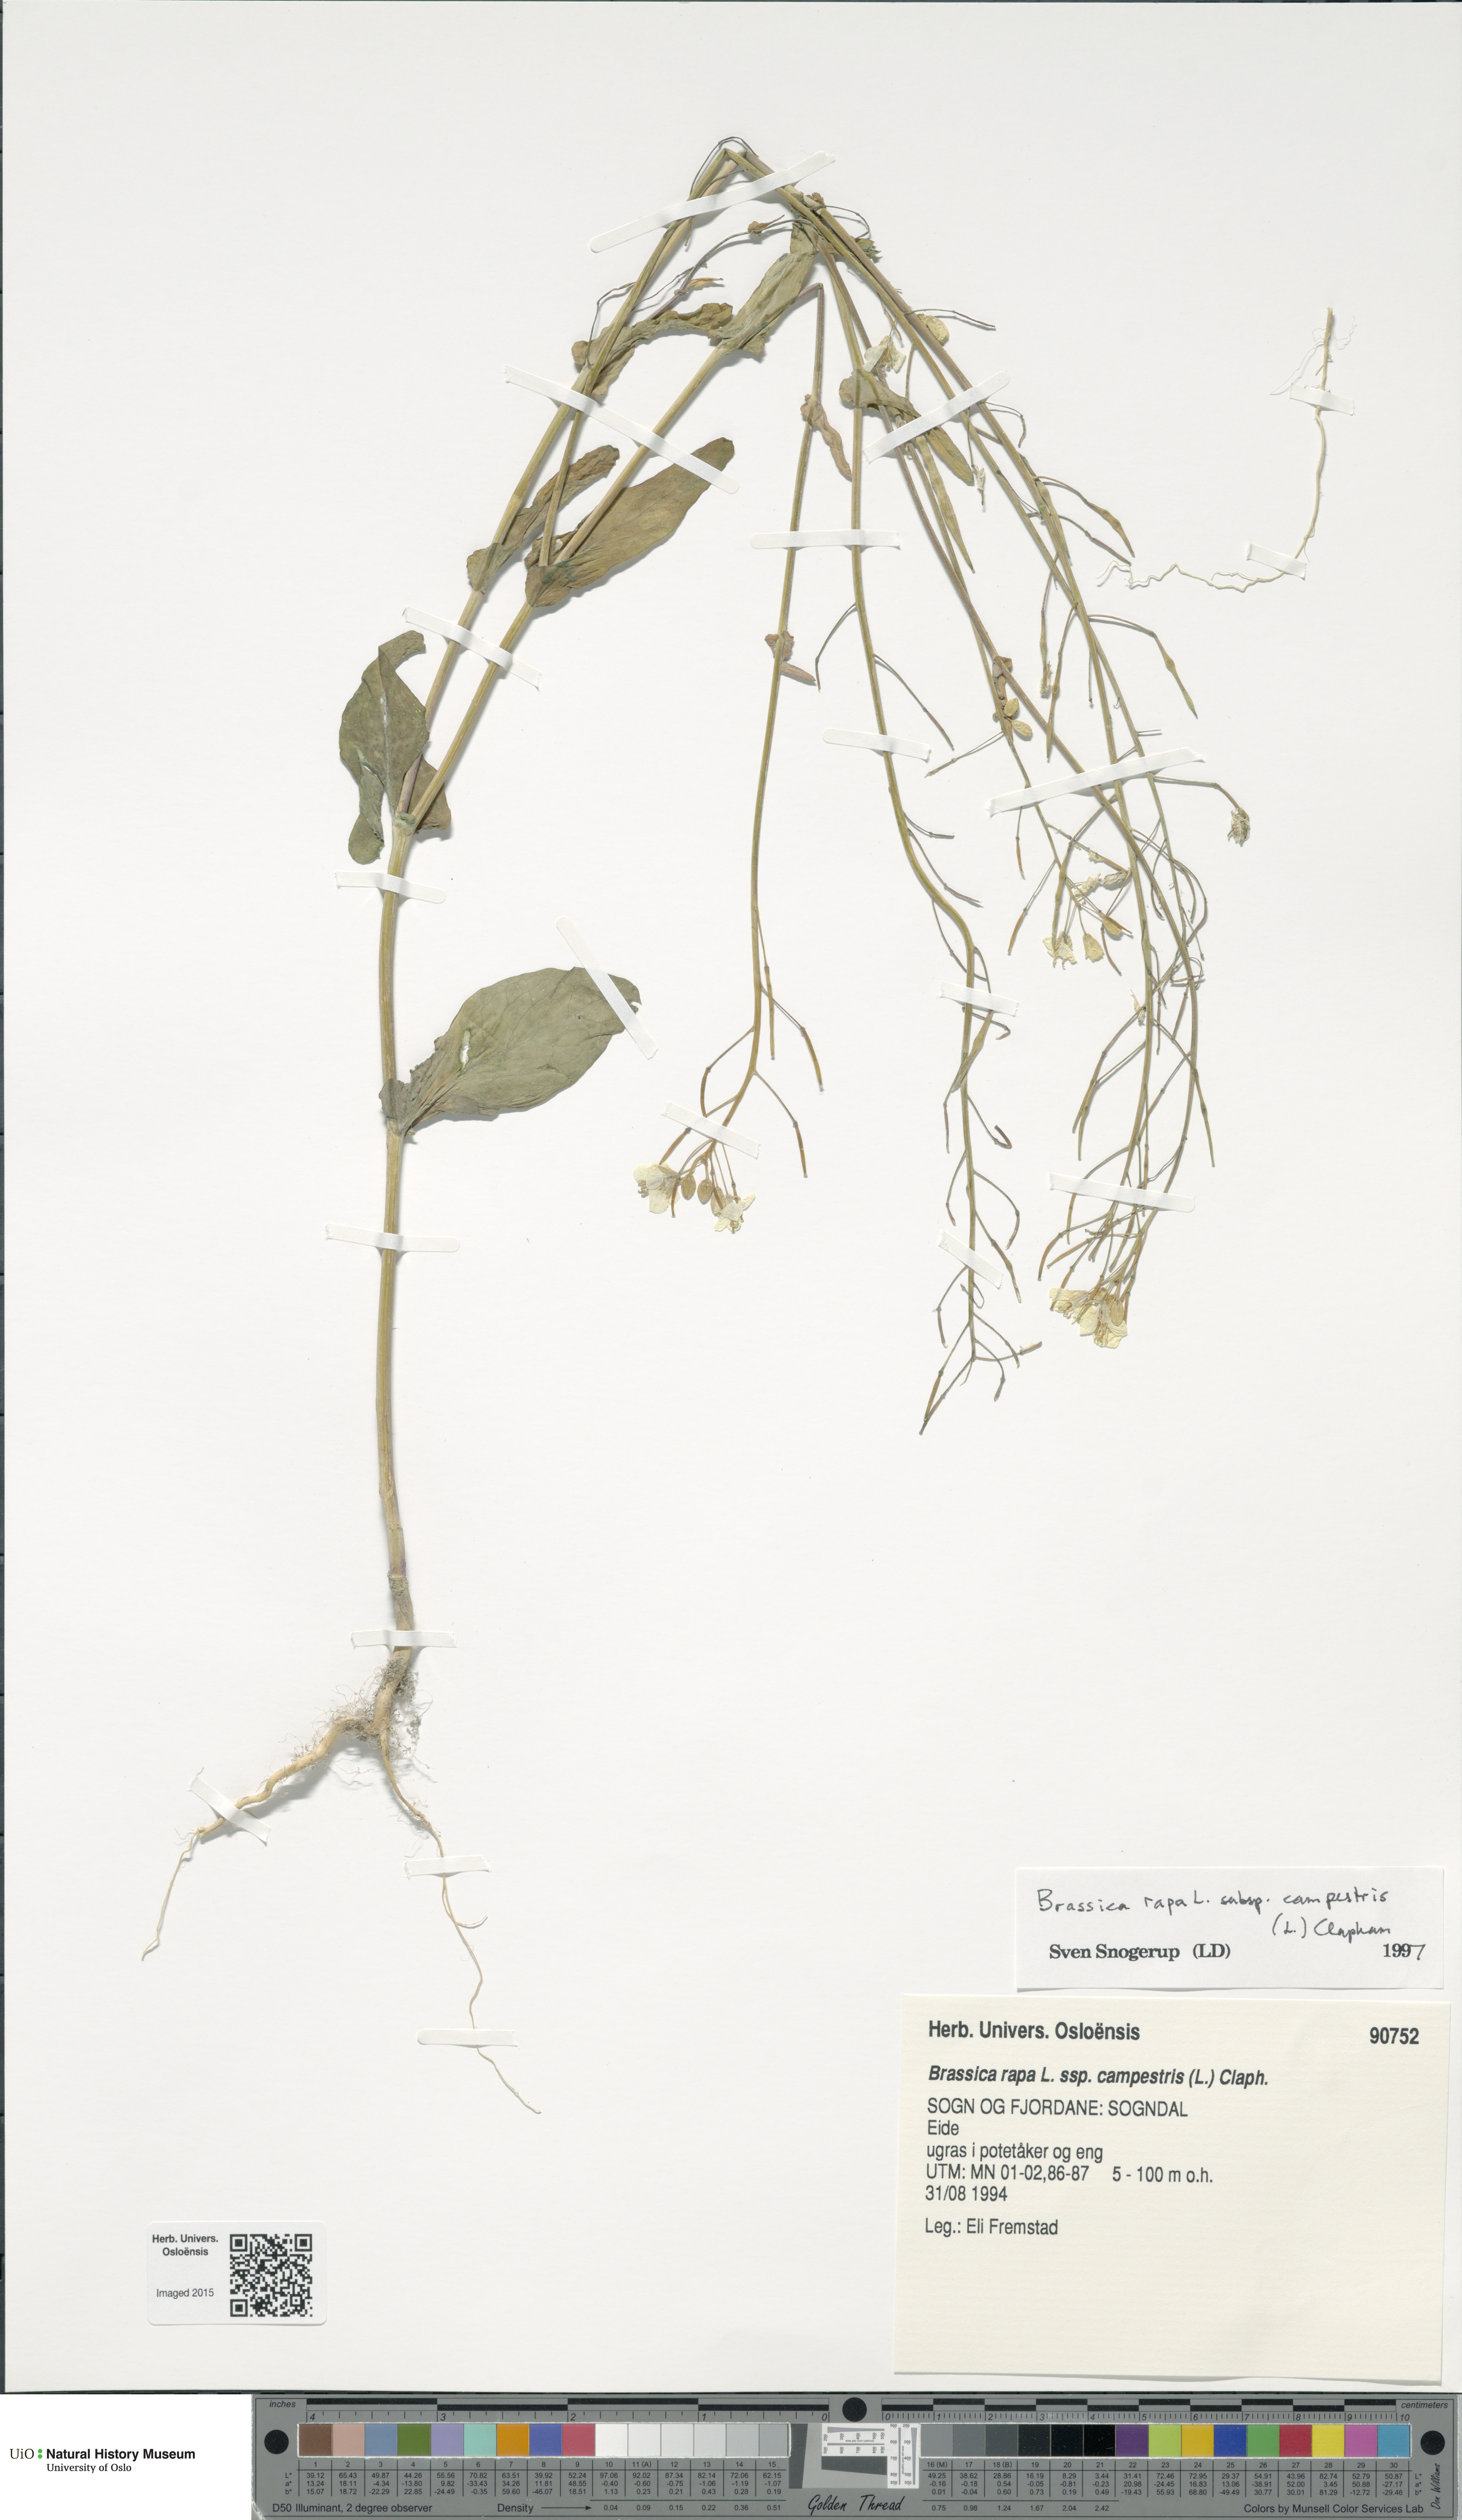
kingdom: Plantae
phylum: Tracheophyta
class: Magnoliopsida
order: Brassicales
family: Brassicaceae
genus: Brassica
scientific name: Brassica rapa
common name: Field mustard
